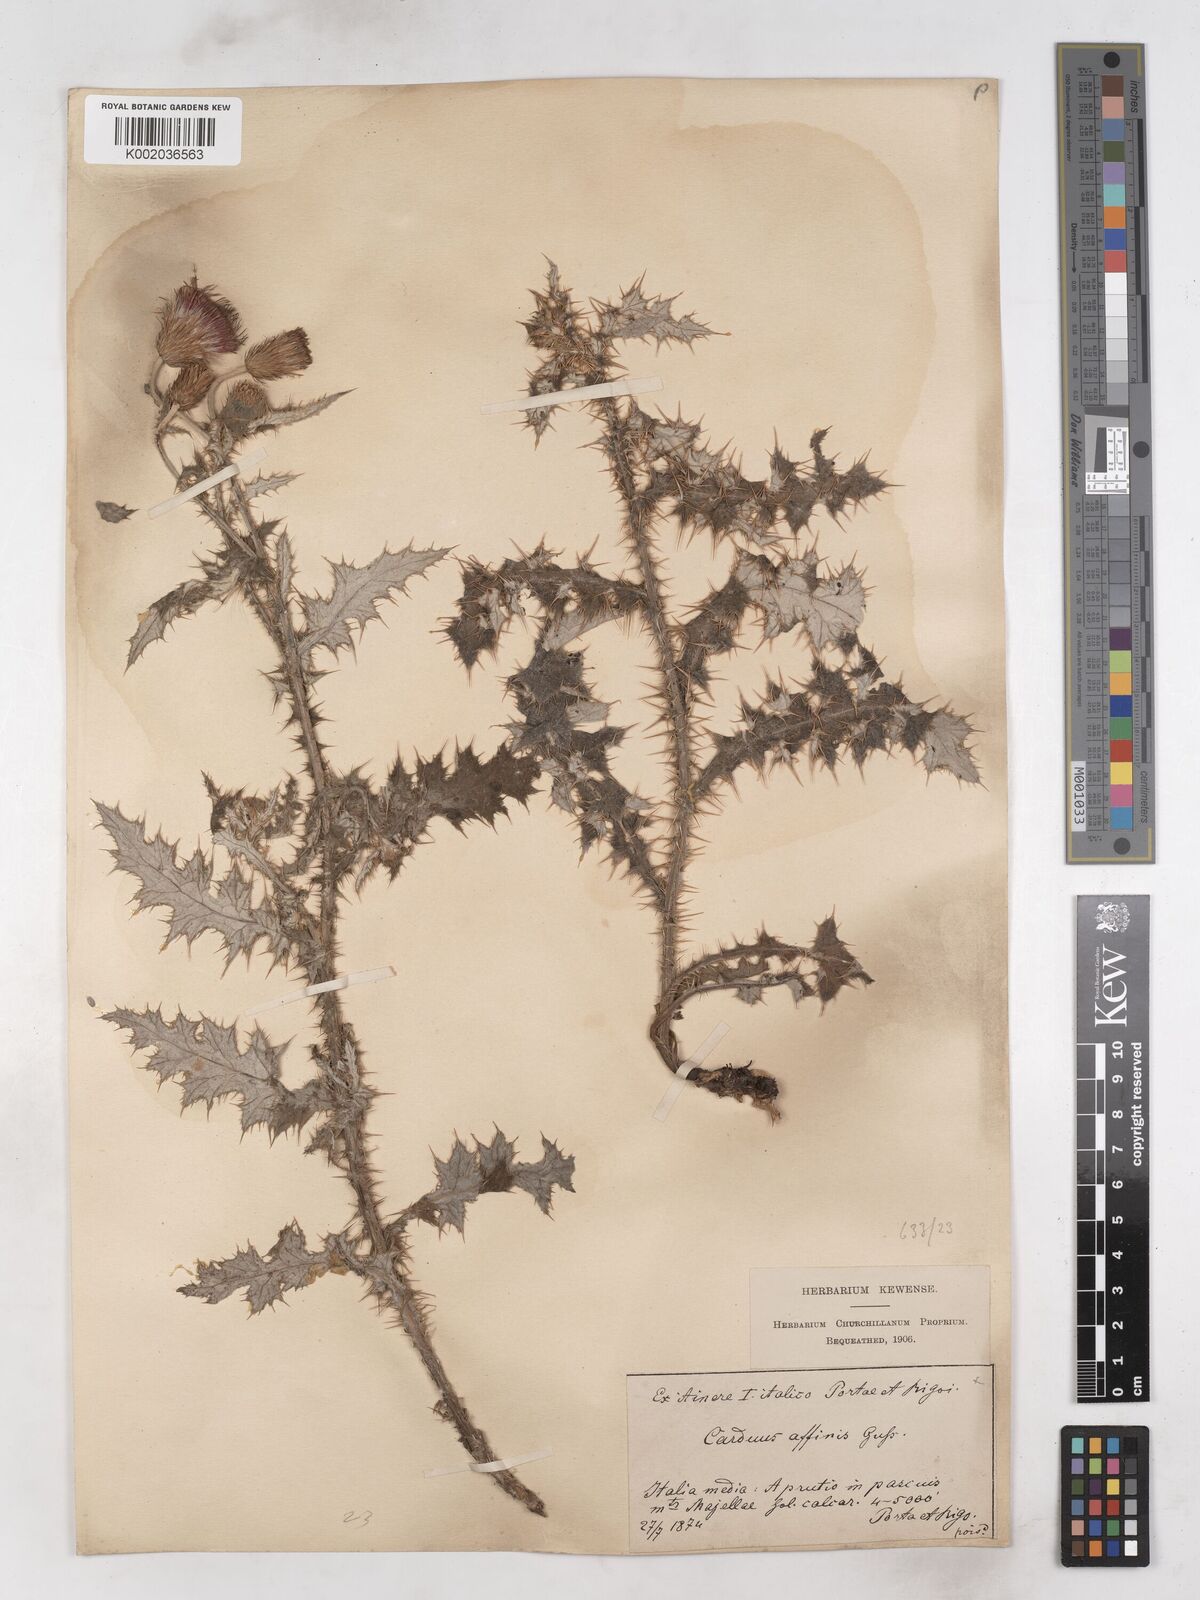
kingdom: Plantae
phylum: Tracheophyta
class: Magnoliopsida
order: Asterales
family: Asteraceae
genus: Carduus
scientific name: Carduus affinis
